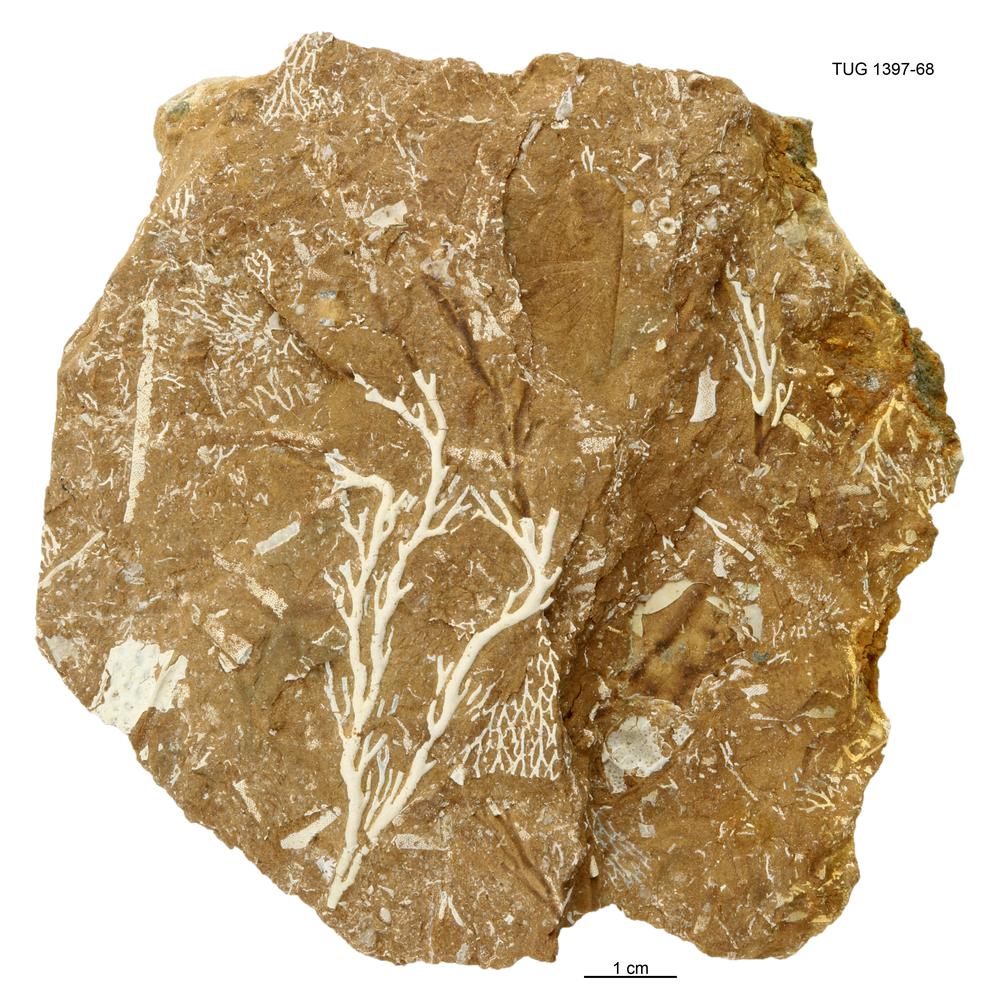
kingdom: Animalia
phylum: Bryozoa
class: Stenolaemata
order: Fenestrida
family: Phylloporinidae
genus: Pseudohornera
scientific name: Pseudohornera bifida
